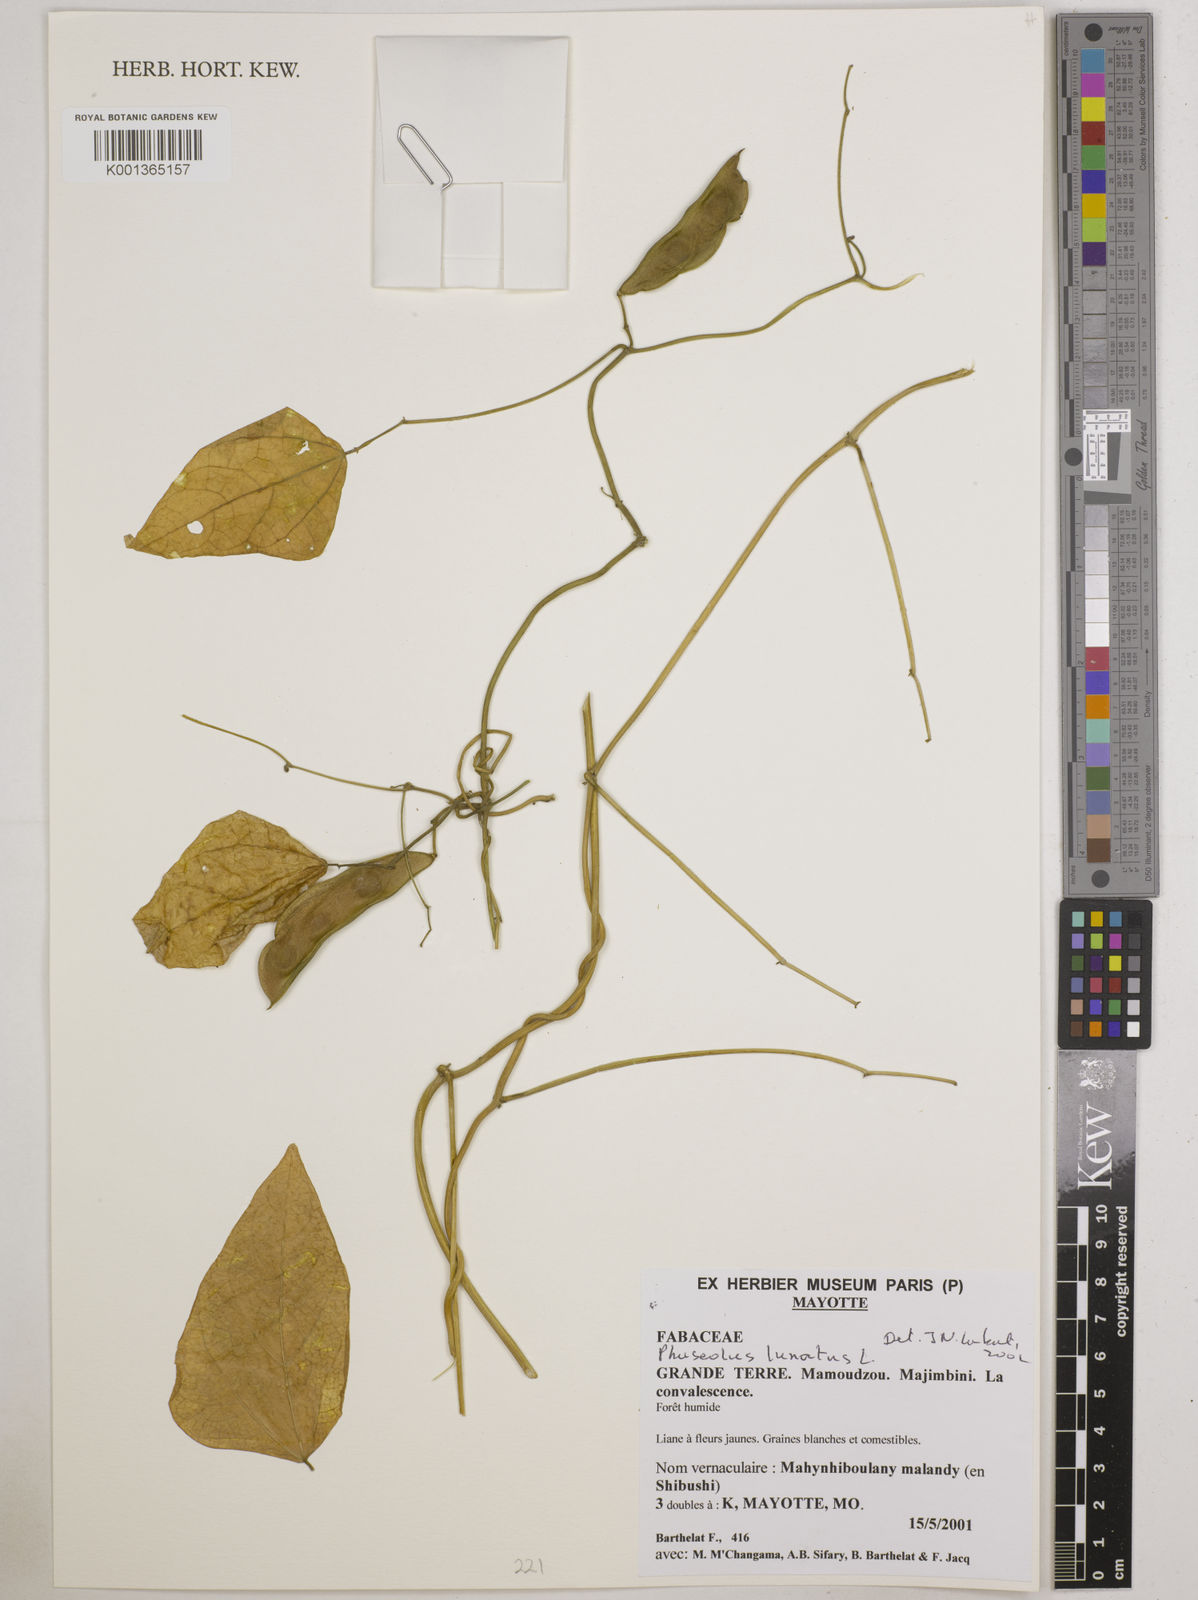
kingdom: Plantae
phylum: Tracheophyta
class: Magnoliopsida
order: Fabales
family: Fabaceae
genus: Phaseolus
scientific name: Phaseolus vulgaris
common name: Bean
